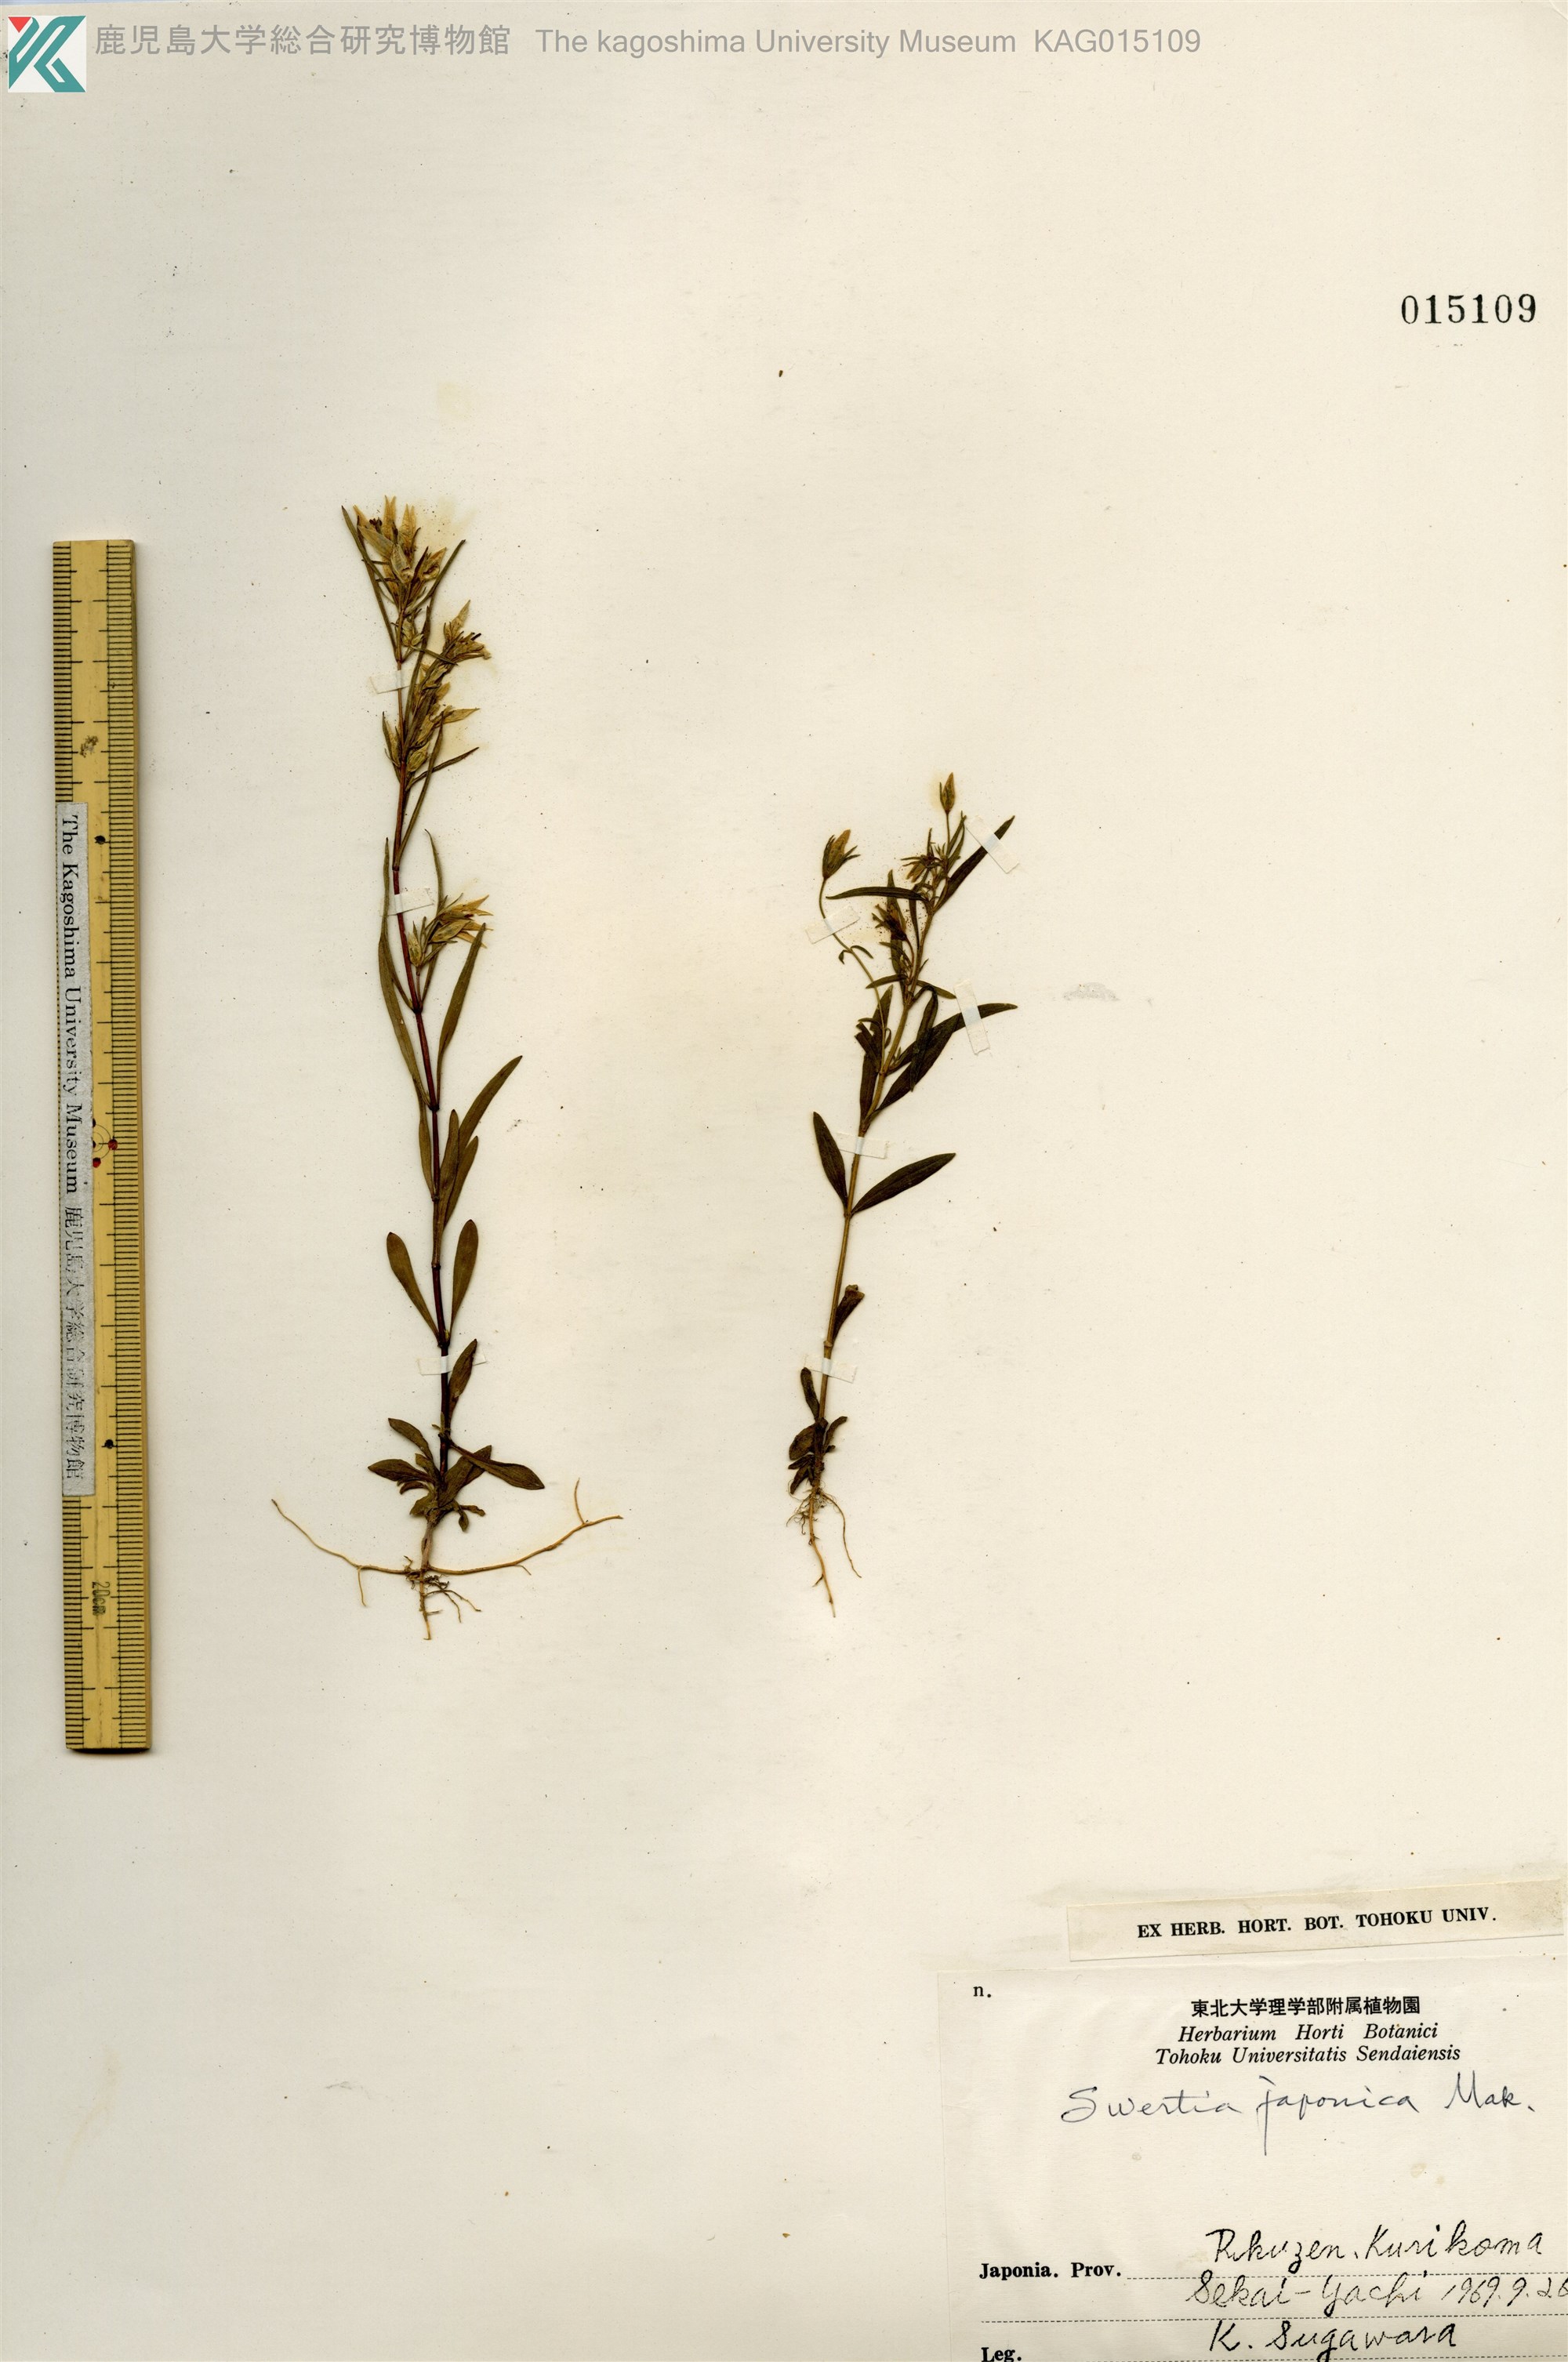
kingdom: Plantae
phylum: Tracheophyta
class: Magnoliopsida
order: Gentianales
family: Gentianaceae
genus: Swertia
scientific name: Swertia japonica
